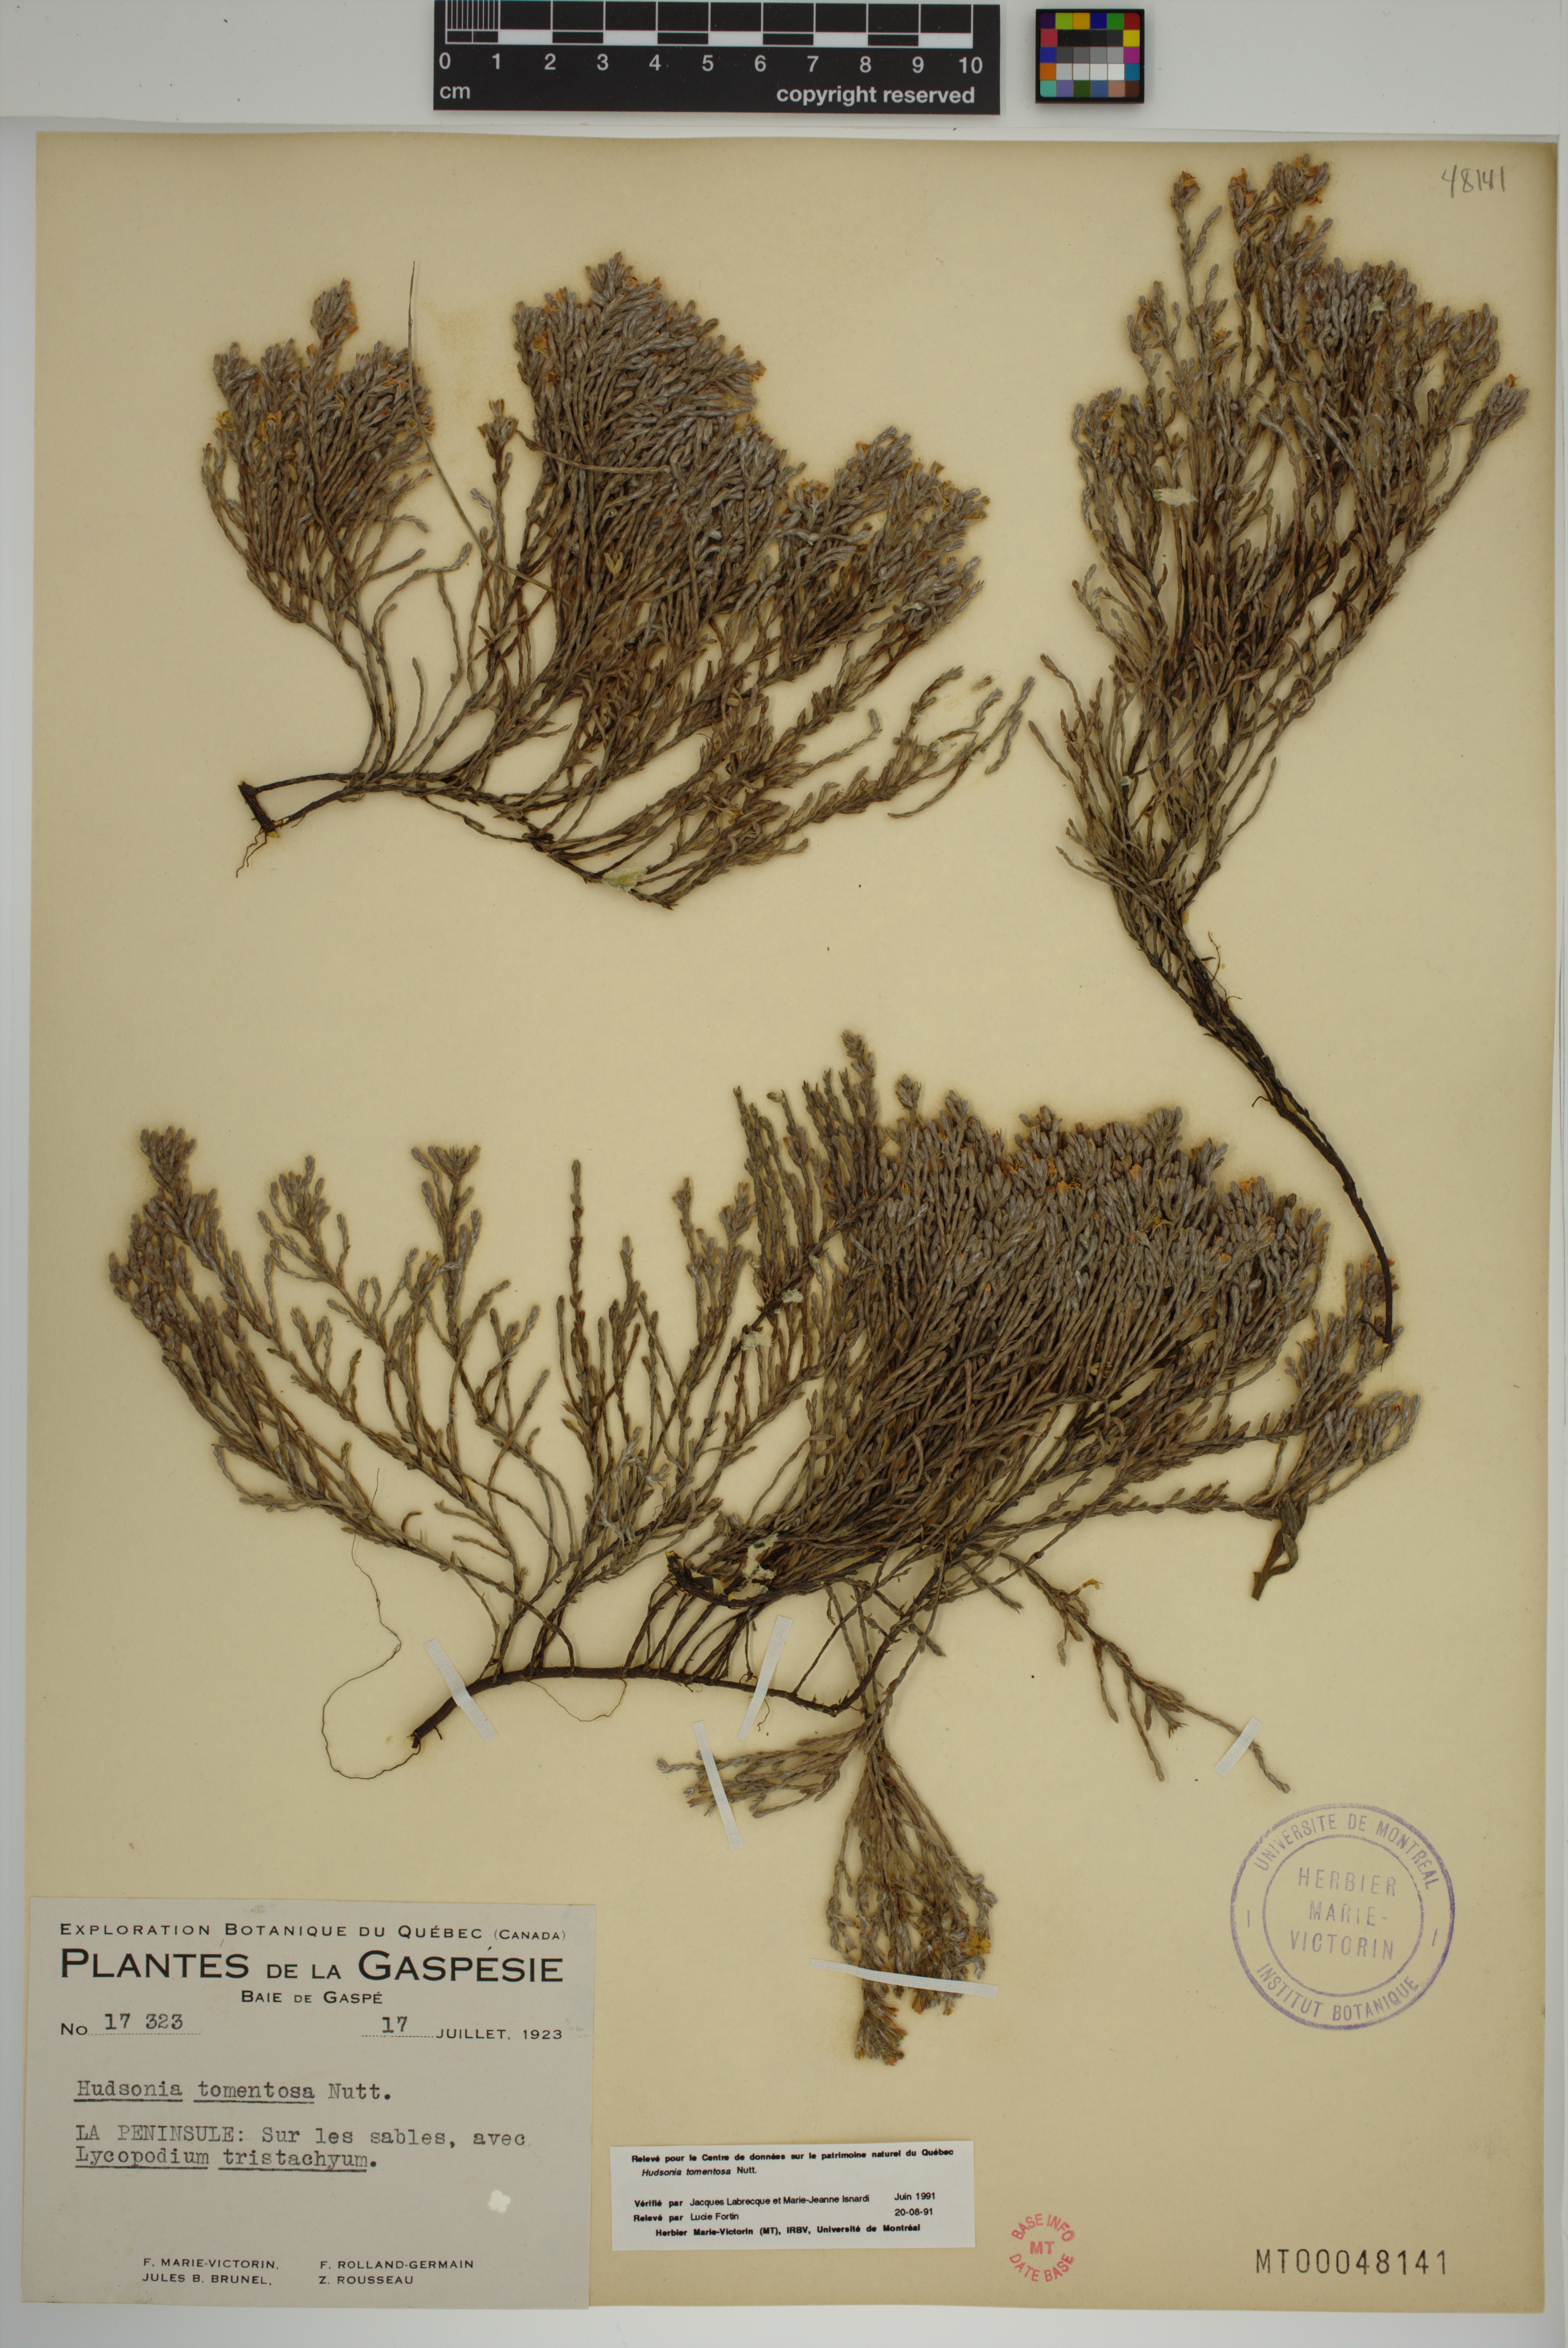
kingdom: Plantae
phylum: Tracheophyta
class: Magnoliopsida
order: Malvales
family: Cistaceae
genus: Hudsonia
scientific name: Hudsonia tomentosa
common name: Beach-heath
